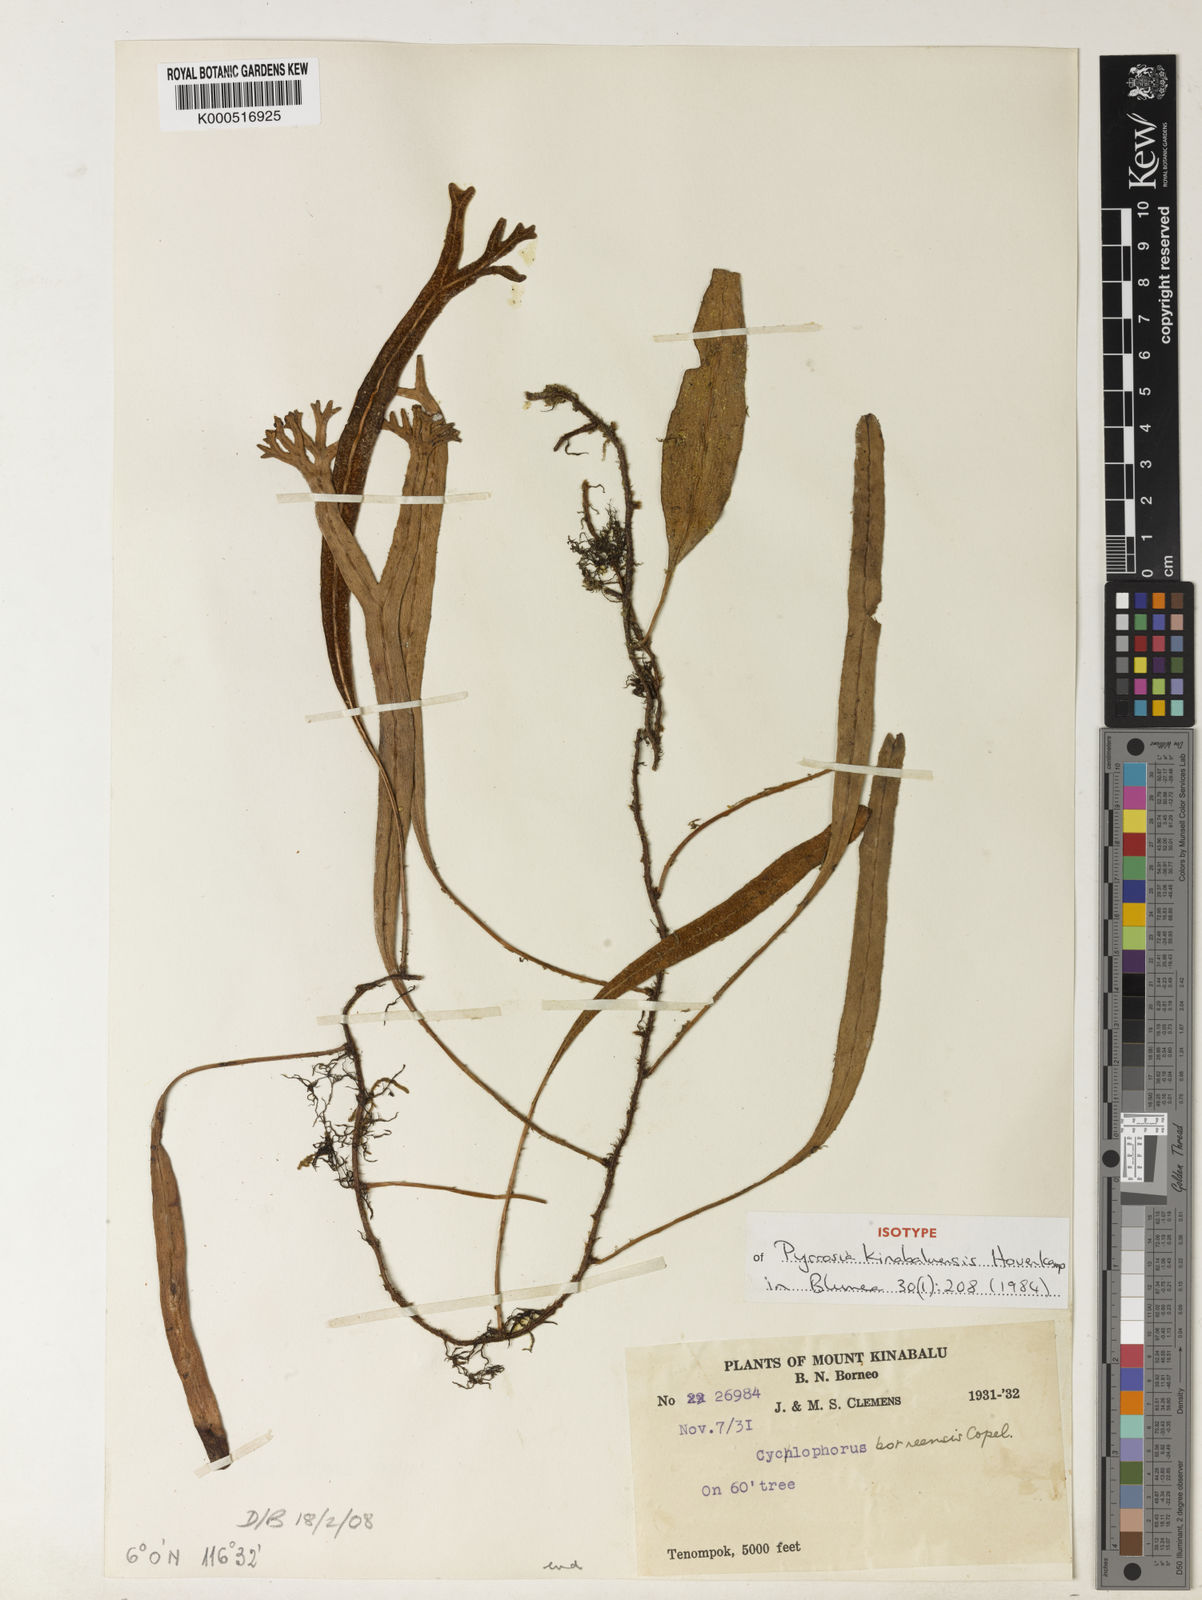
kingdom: Plantae
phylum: Tracheophyta
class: Polypodiopsida
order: Polypodiales
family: Polypodiaceae
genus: Pyrrosia
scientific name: Pyrrosia kinabaluensis
